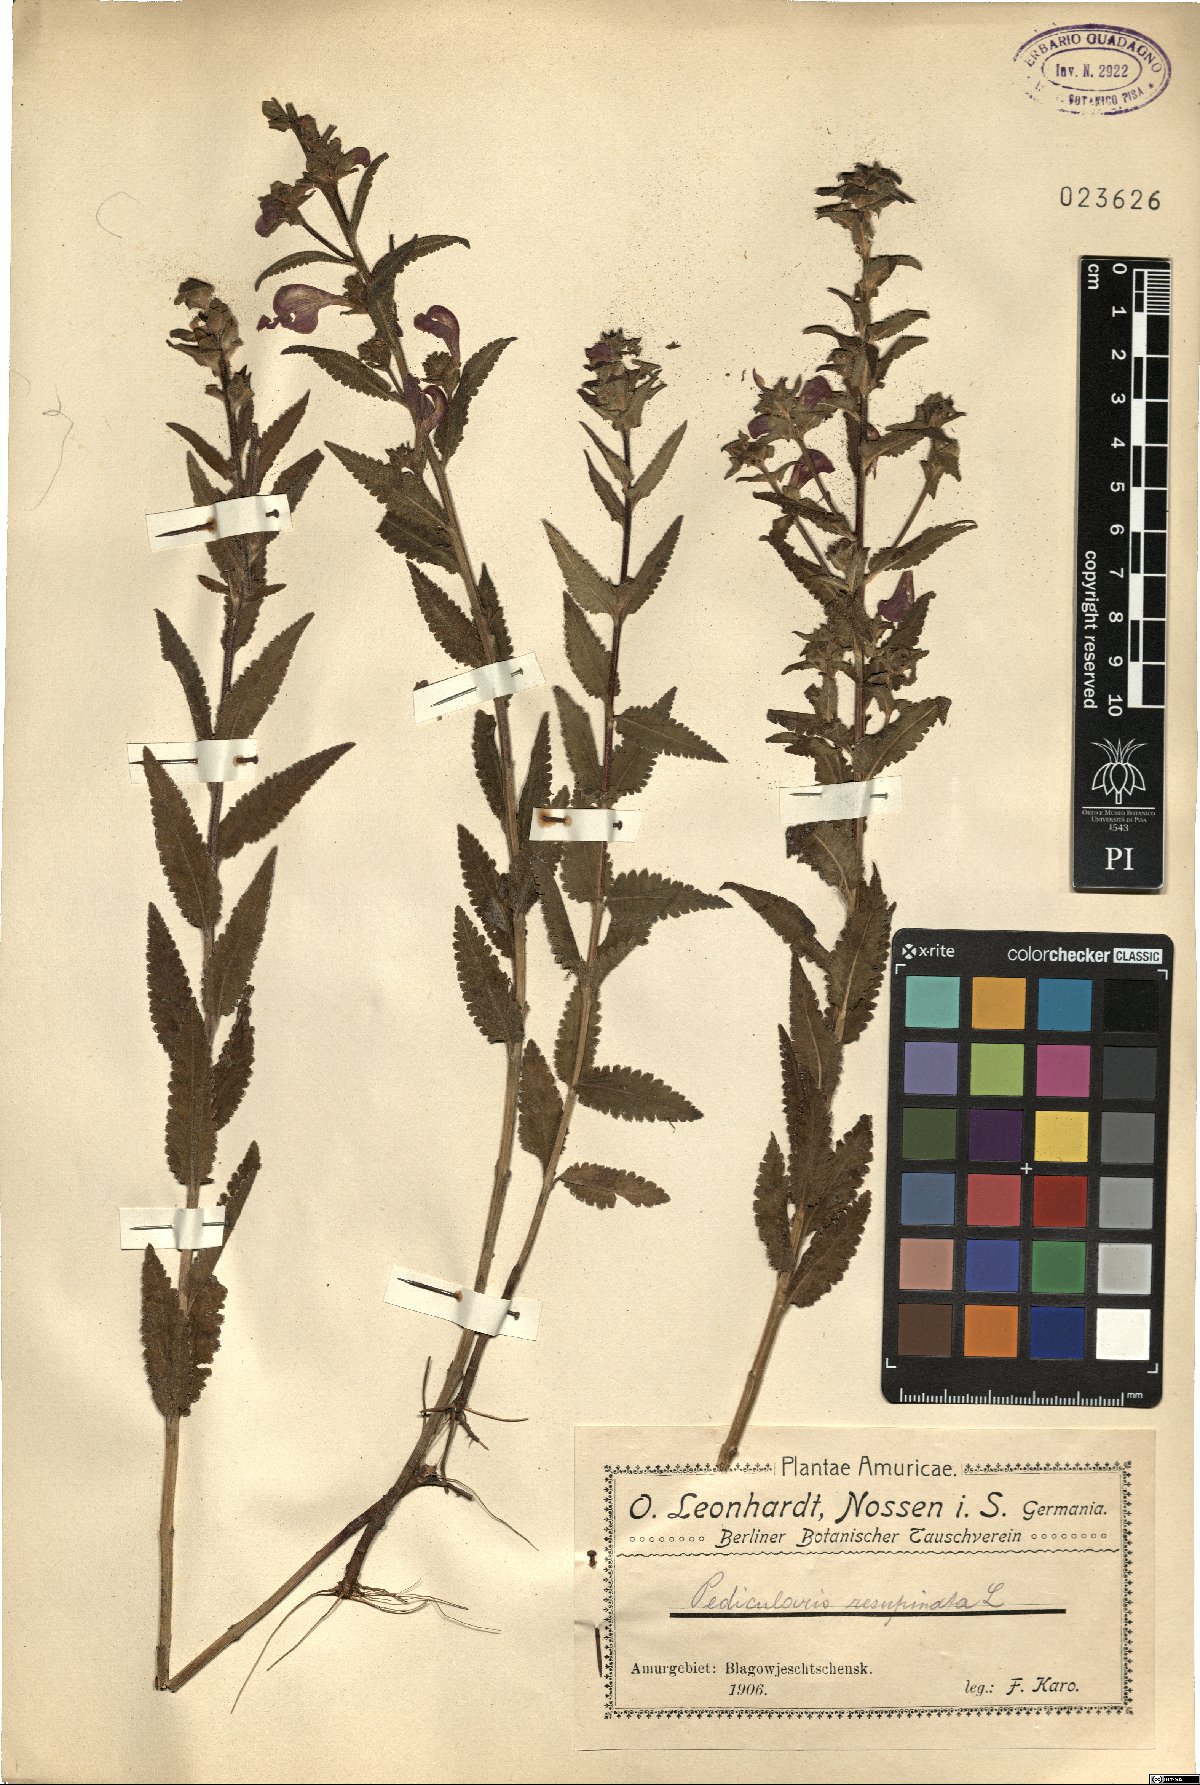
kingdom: Plantae
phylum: Tracheophyta
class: Magnoliopsida
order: Lamiales
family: Orobanchaceae
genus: Pedicularis
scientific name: Pedicularis resupinata
